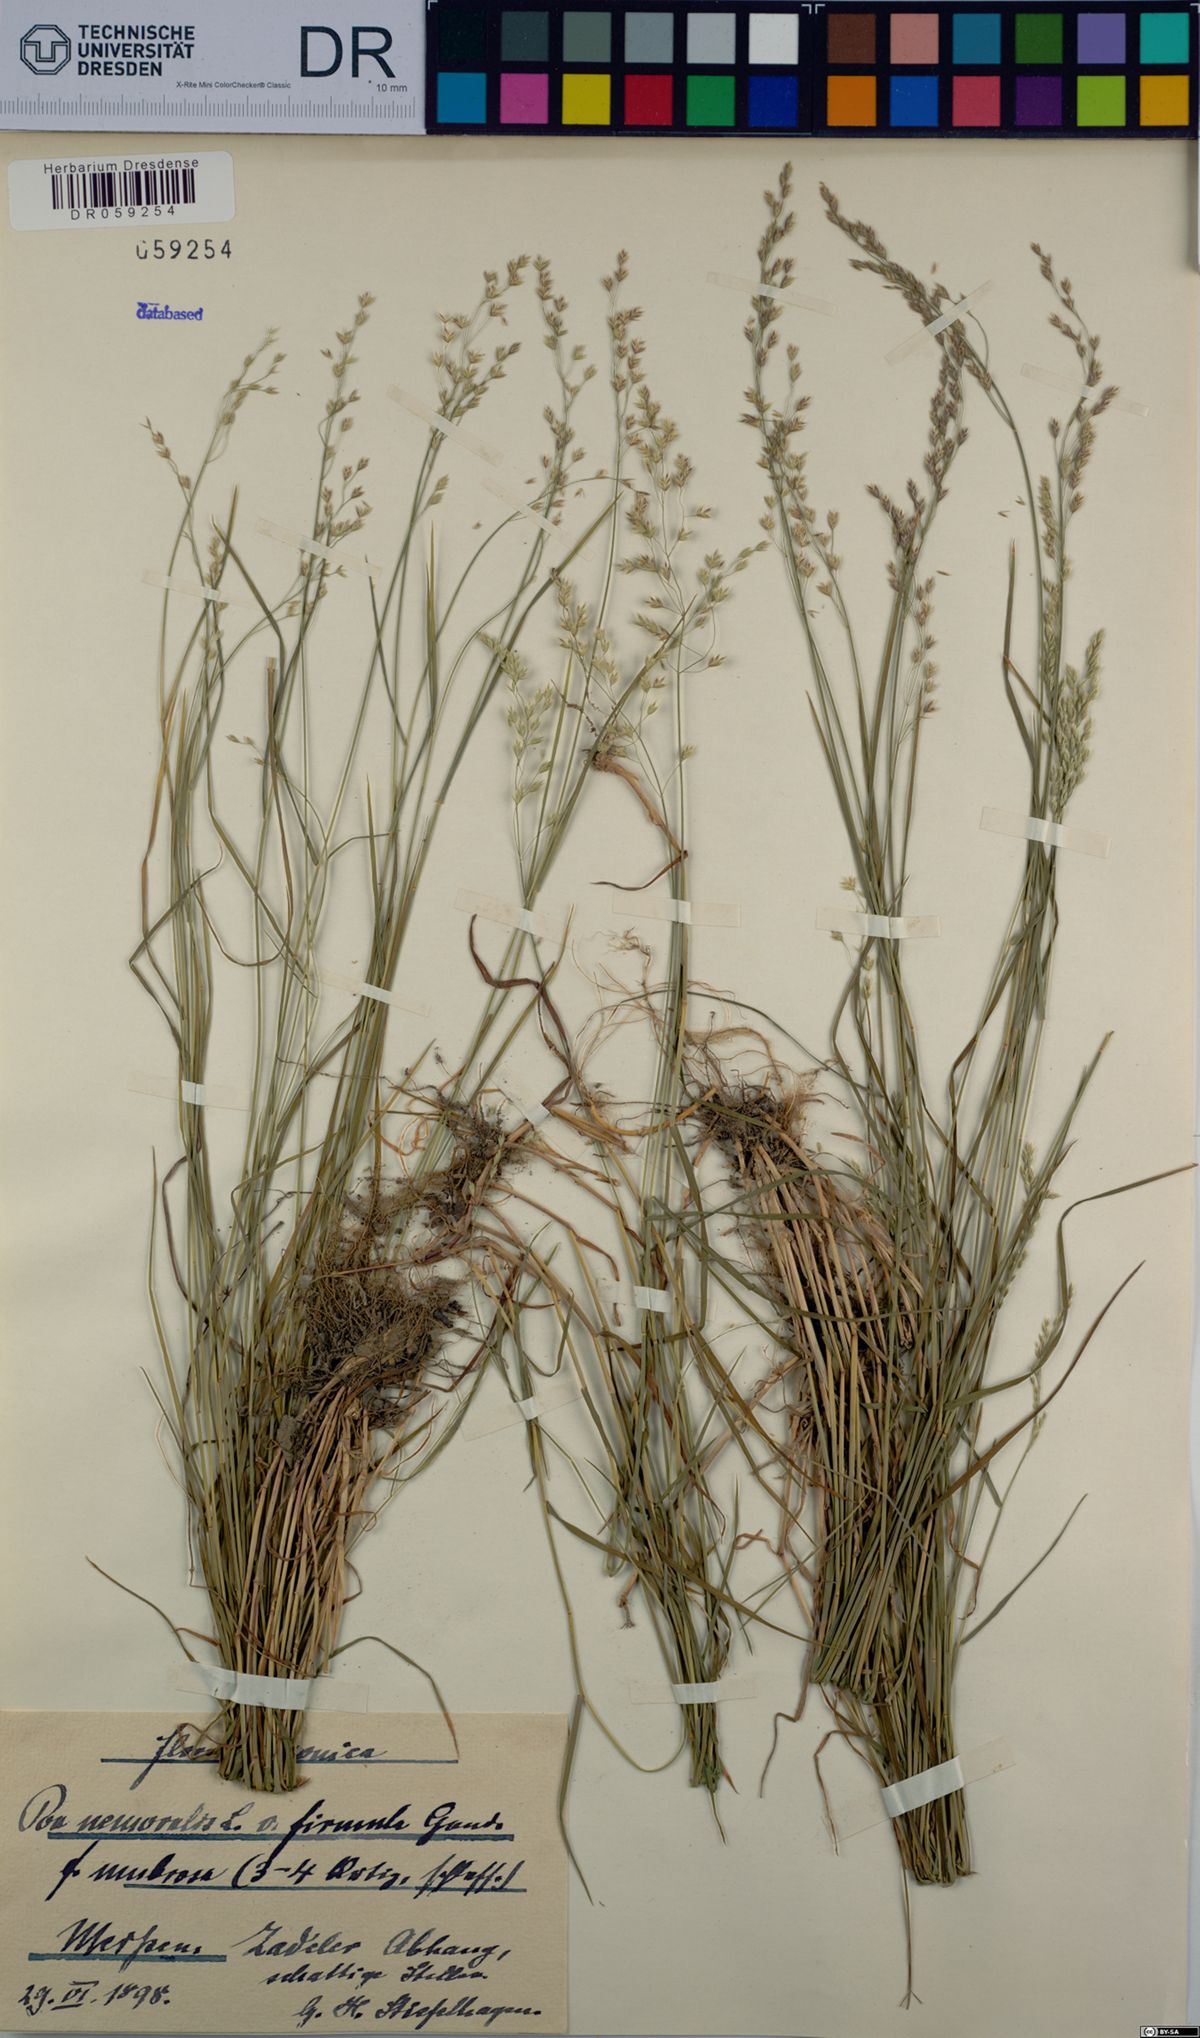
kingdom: Plantae
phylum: Tracheophyta
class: Liliopsida
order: Poales
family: Poaceae
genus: Poa
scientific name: Poa nemoralis
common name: Wood bluegrass
